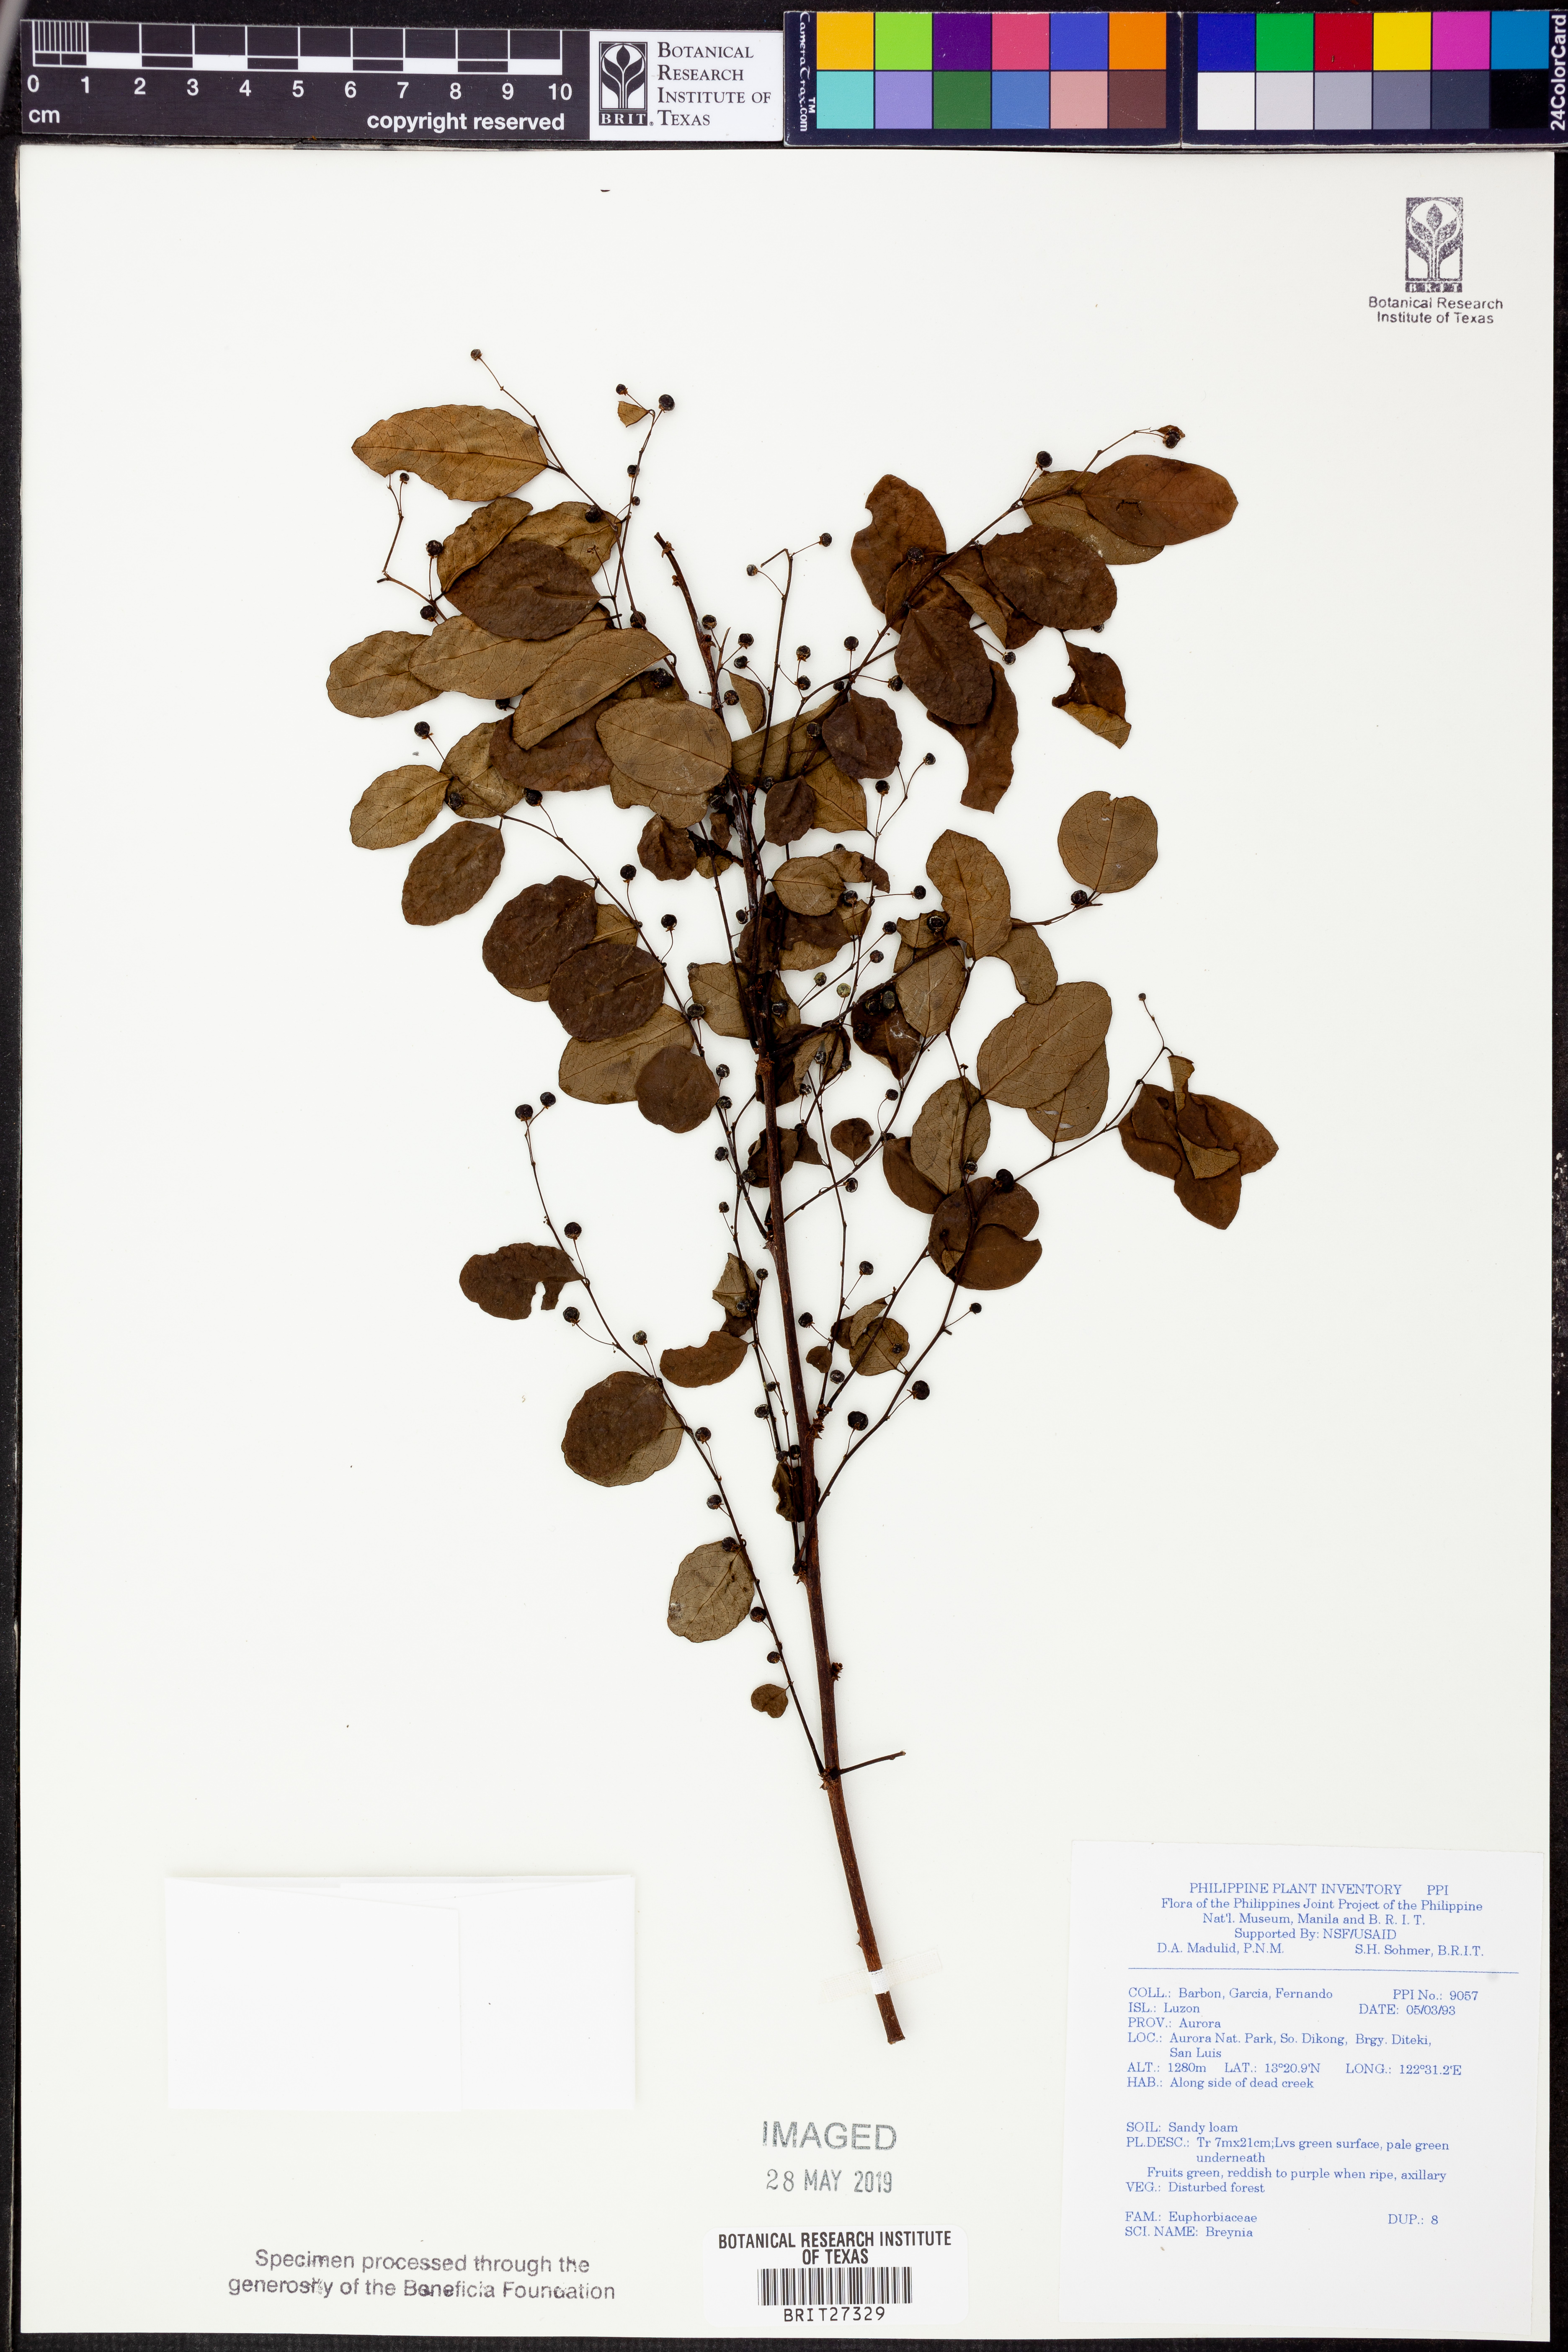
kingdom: Plantae
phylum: Tracheophyta
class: Magnoliopsida
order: Malpighiales
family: Phyllanthaceae
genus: Breynia
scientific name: Breynia
